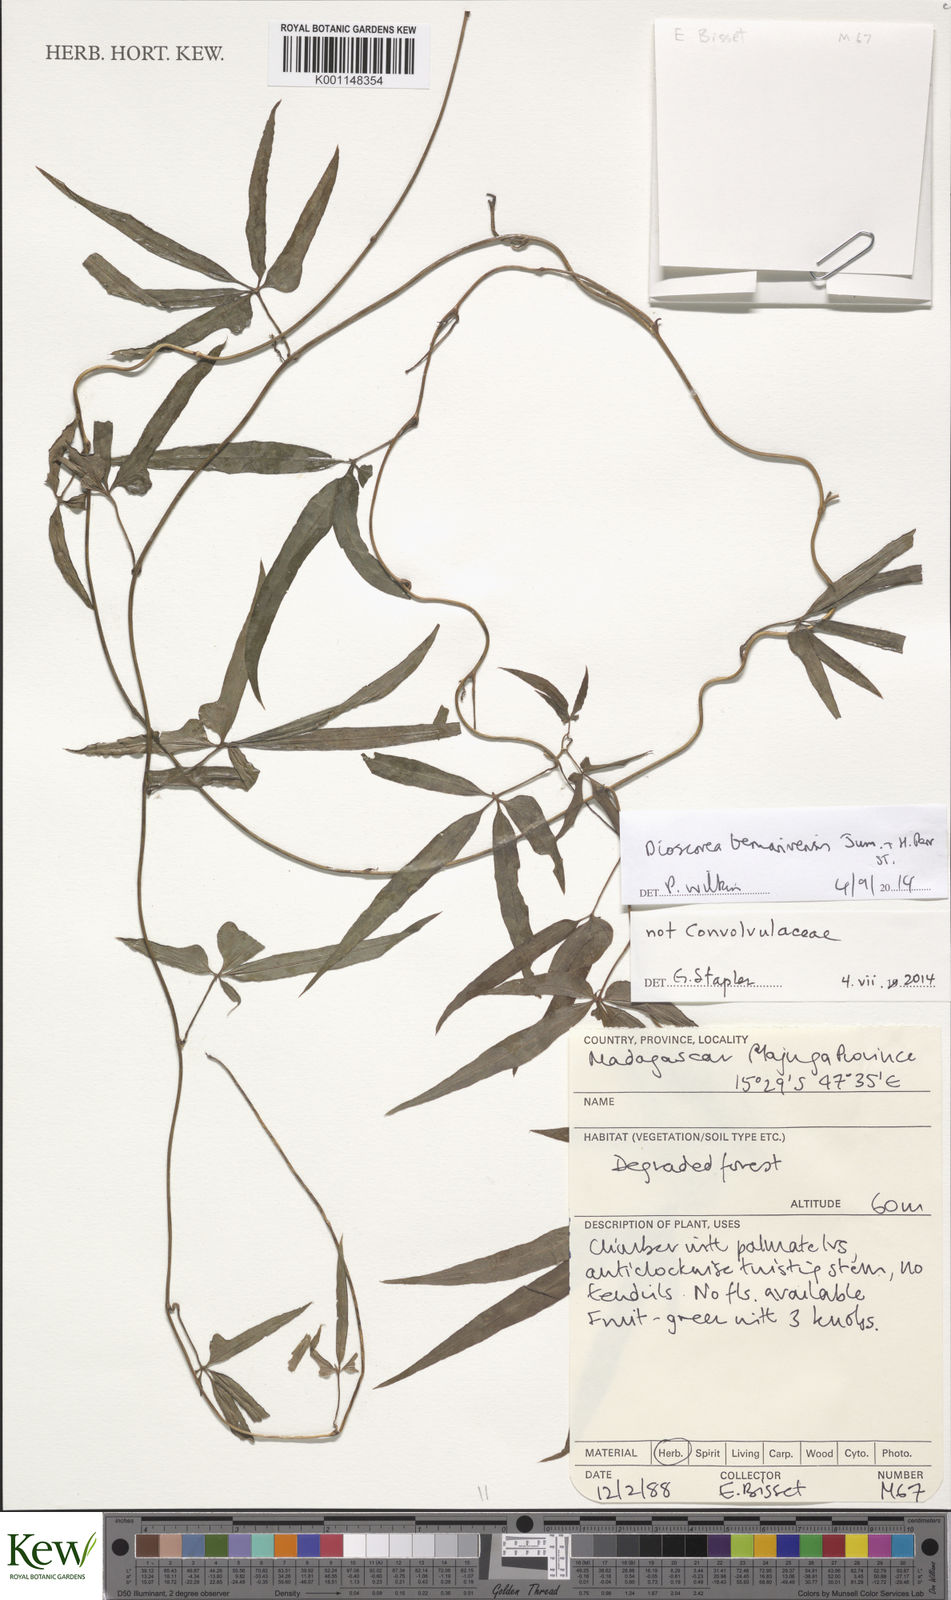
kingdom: Plantae
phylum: Tracheophyta
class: Liliopsida
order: Dioscoreales
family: Dioscoreaceae
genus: Dioscorea
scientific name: Dioscorea bemarivensis
